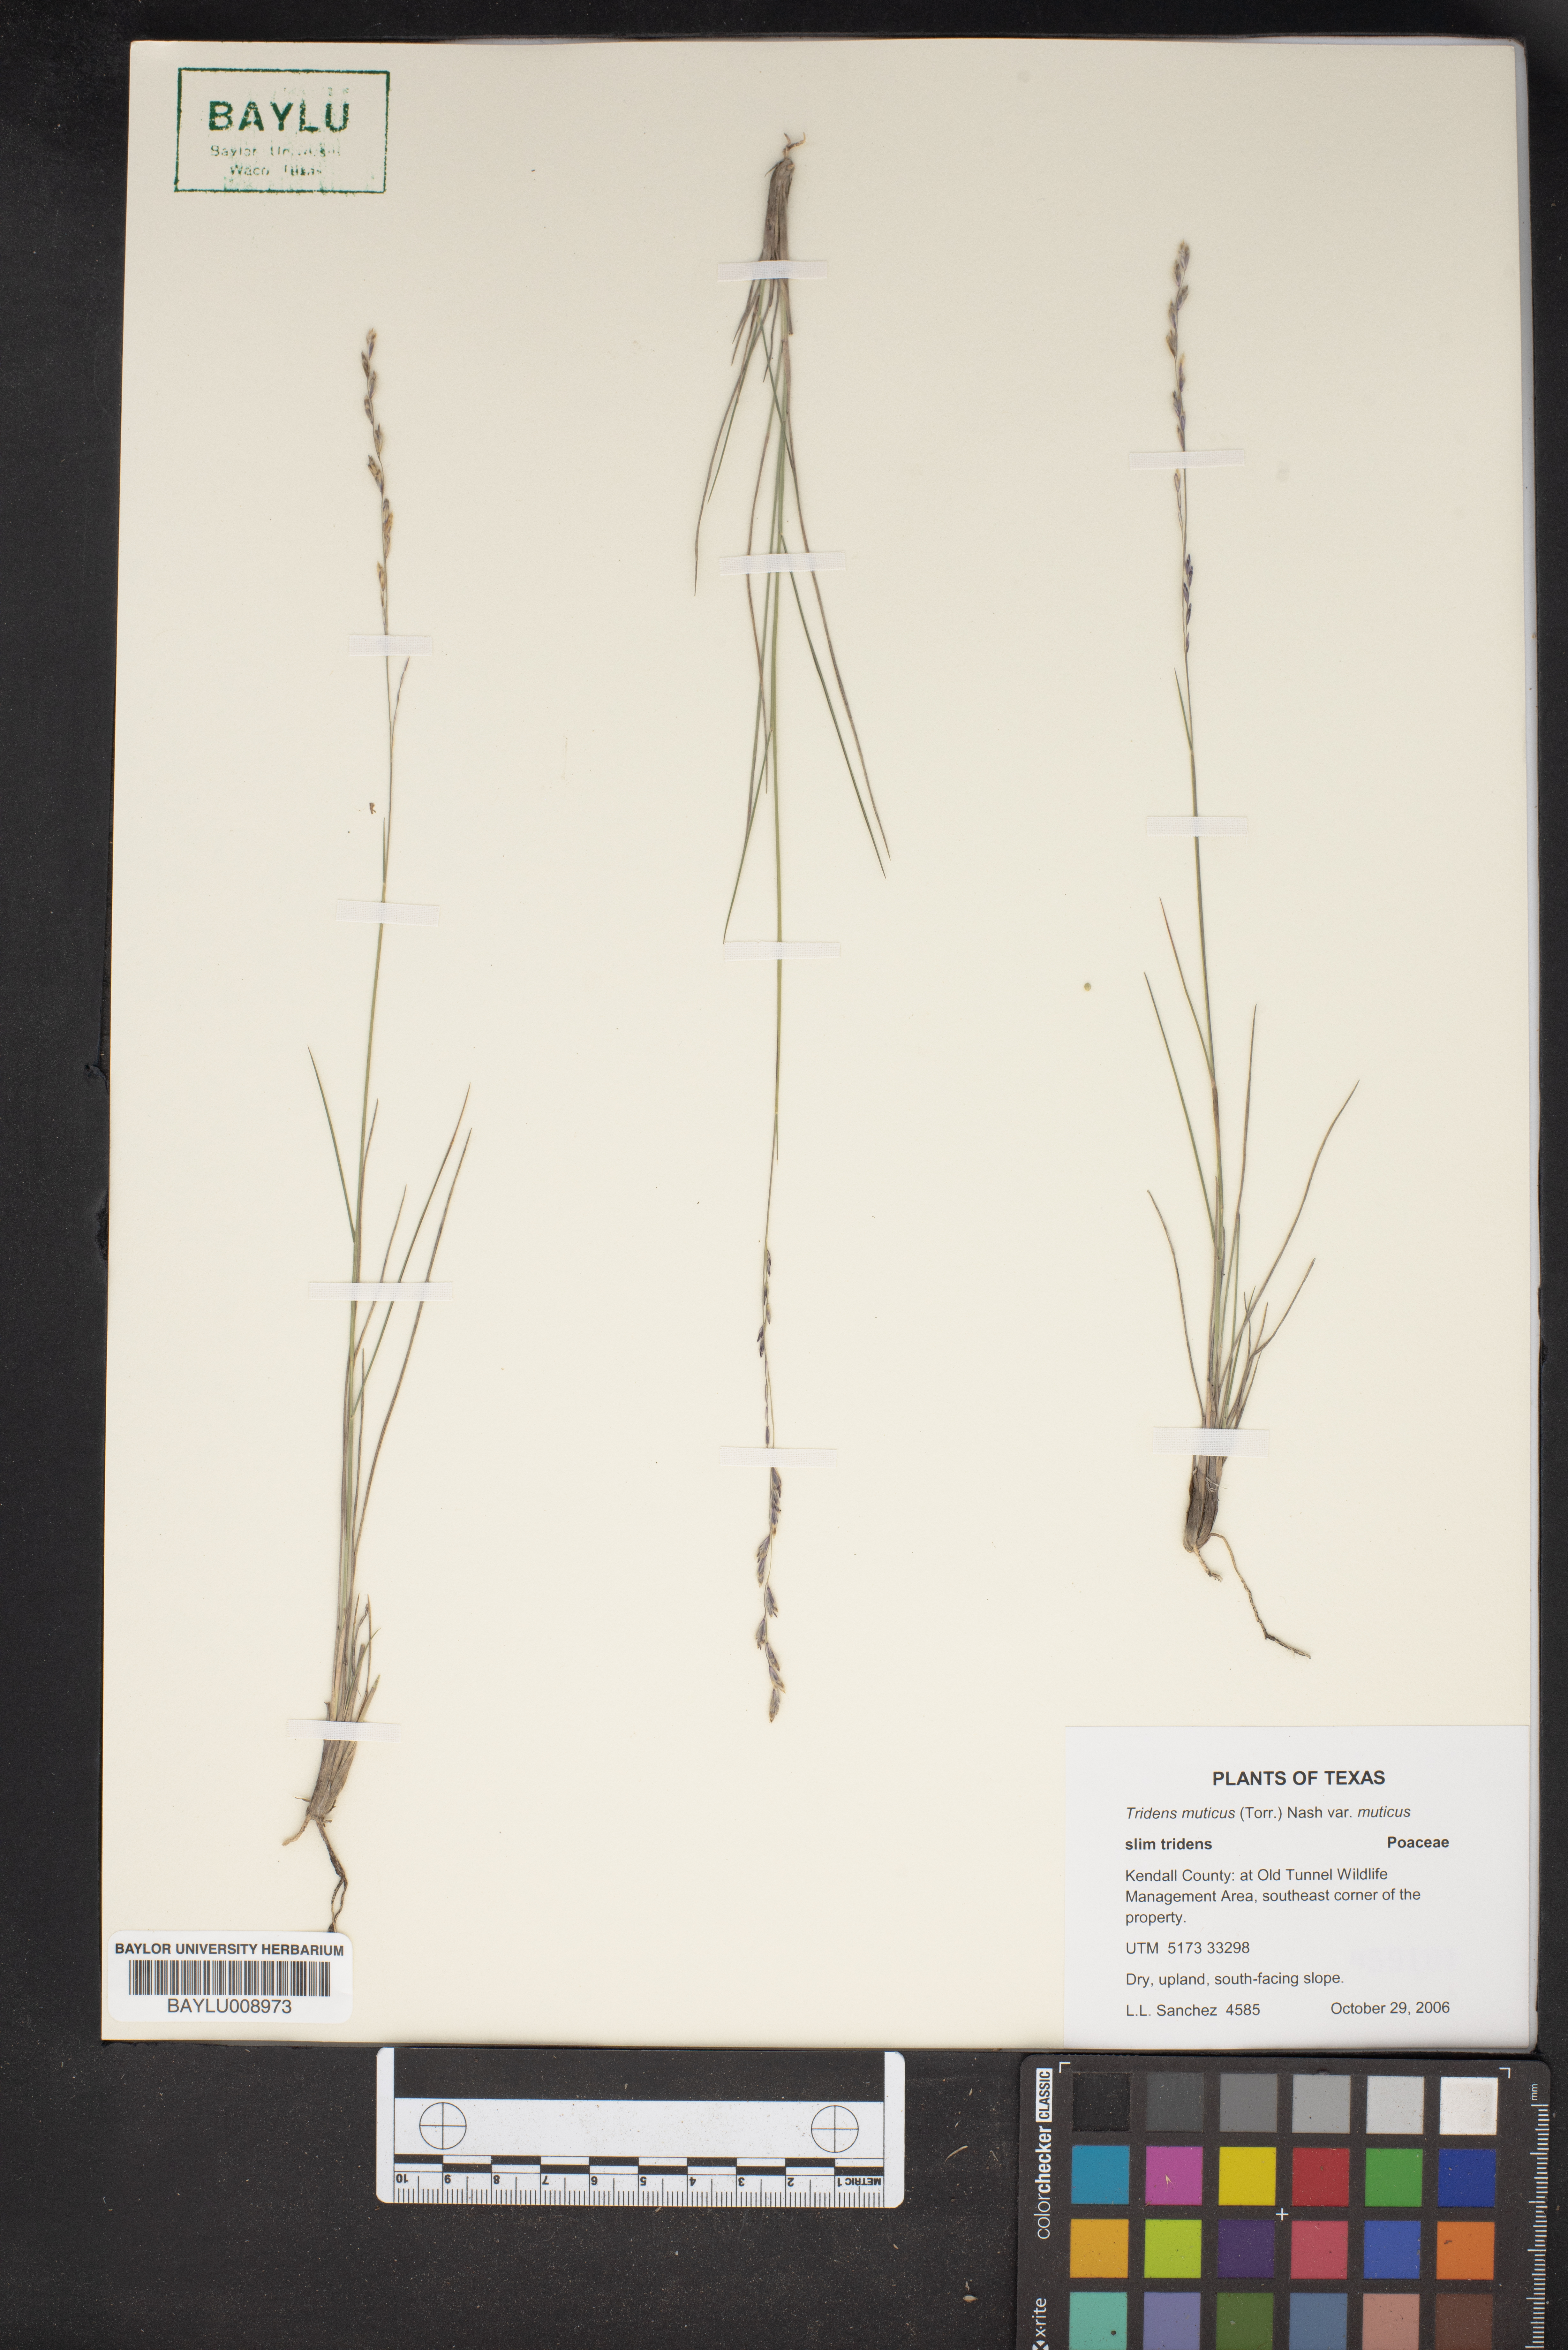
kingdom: Plantae
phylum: Tracheophyta
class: Liliopsida
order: Poales
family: Poaceae
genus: Tridentopsis
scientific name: Tridentopsis mutica
